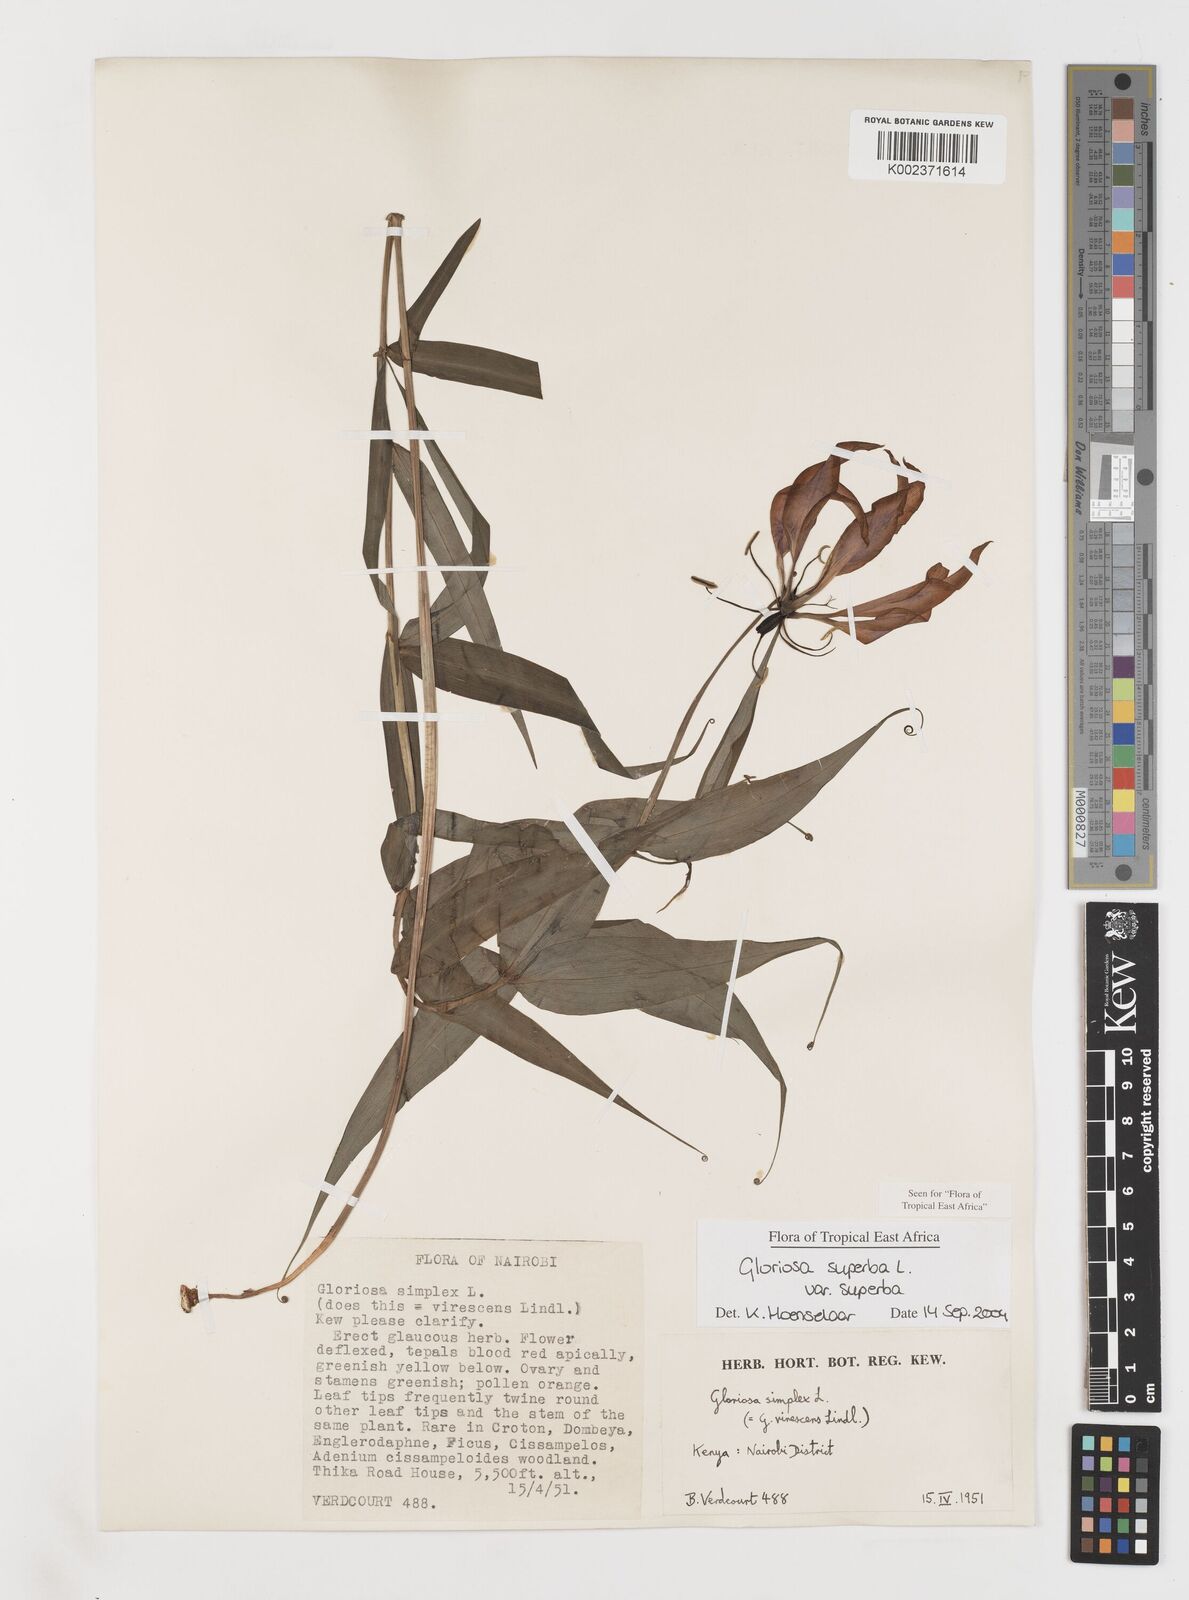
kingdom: Plantae
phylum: Tracheophyta
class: Liliopsida
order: Liliales
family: Colchicaceae
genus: Gloriosa
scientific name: Gloriosa simplex
